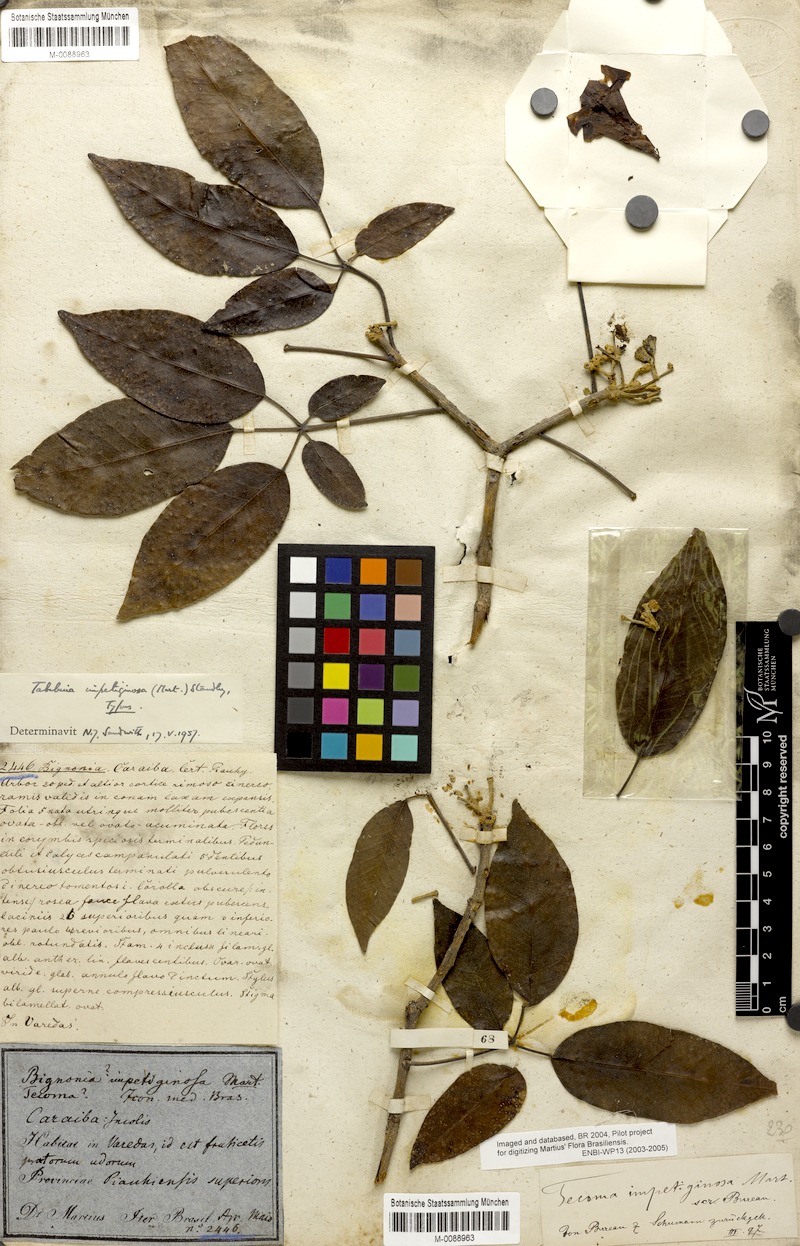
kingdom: Plantae
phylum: Tracheophyta
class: Magnoliopsida
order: Lamiales
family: Bignoniaceae
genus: Handroanthus
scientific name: Handroanthus impetiginosum
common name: Pink trumpet tree
